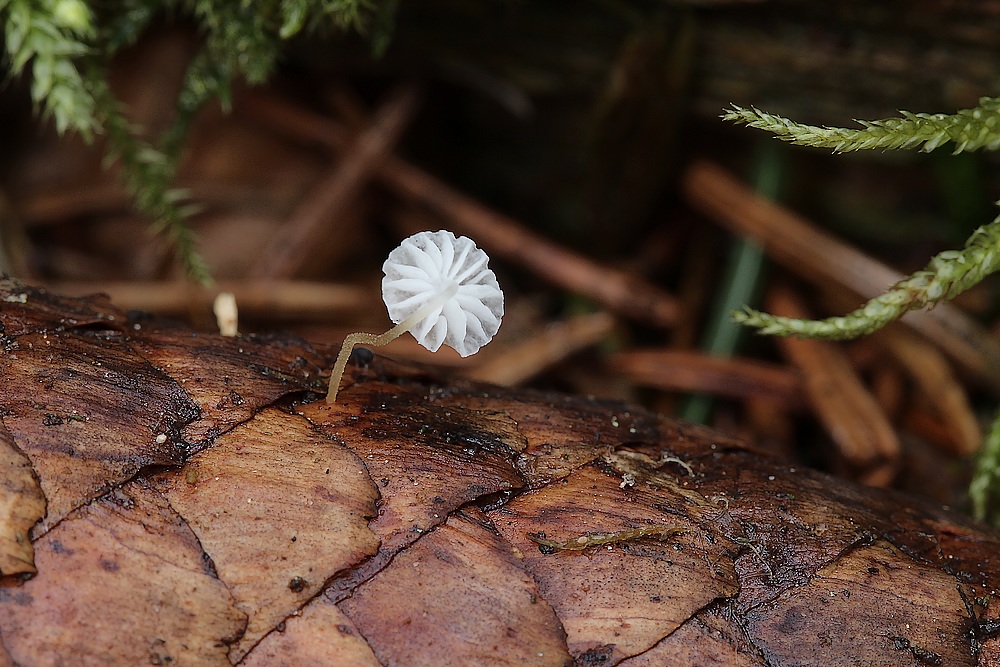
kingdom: Fungi
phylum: Basidiomycota
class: Agaricomycetes
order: Agaricales
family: Physalacriaceae
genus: Strobilurus
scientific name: Strobilurus esculentus
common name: gran-koglehat
